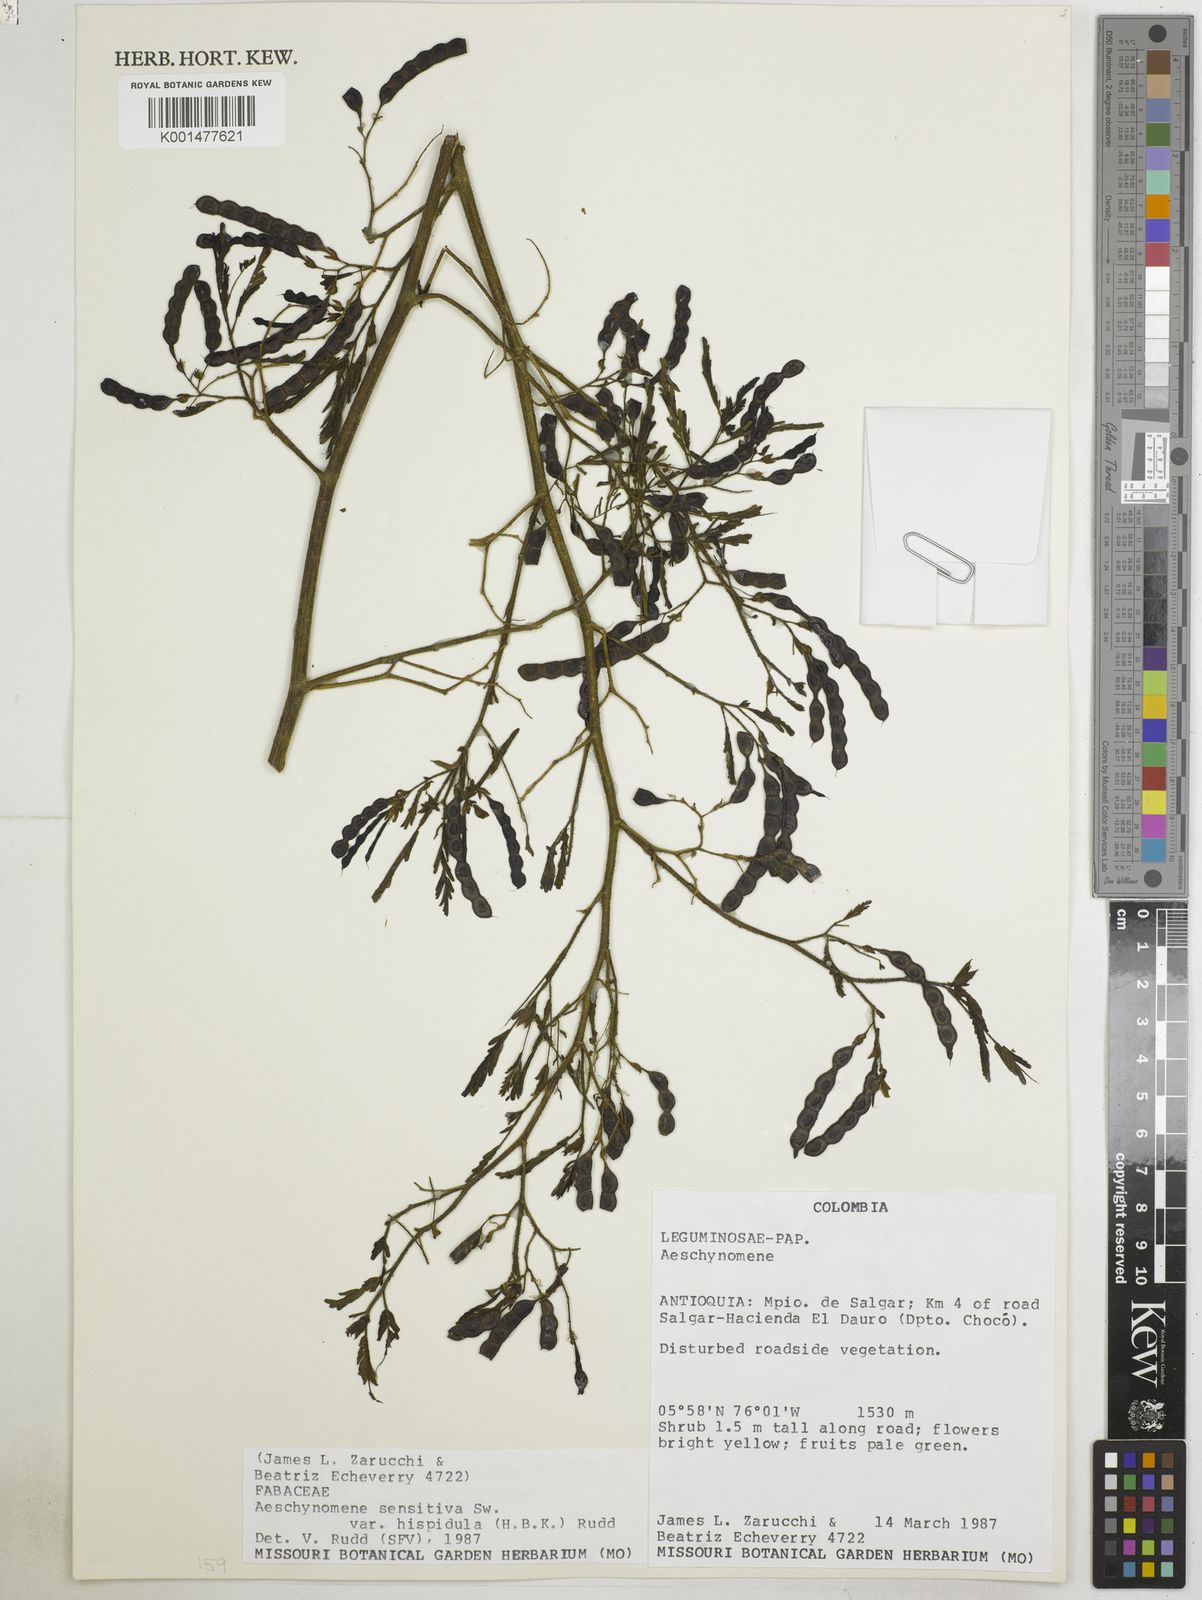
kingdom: Plantae
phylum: Tracheophyta
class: Magnoliopsida
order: Fabales
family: Fabaceae
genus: Aeschynomene
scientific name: Aeschynomene rudis
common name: Rough joint-vetch
